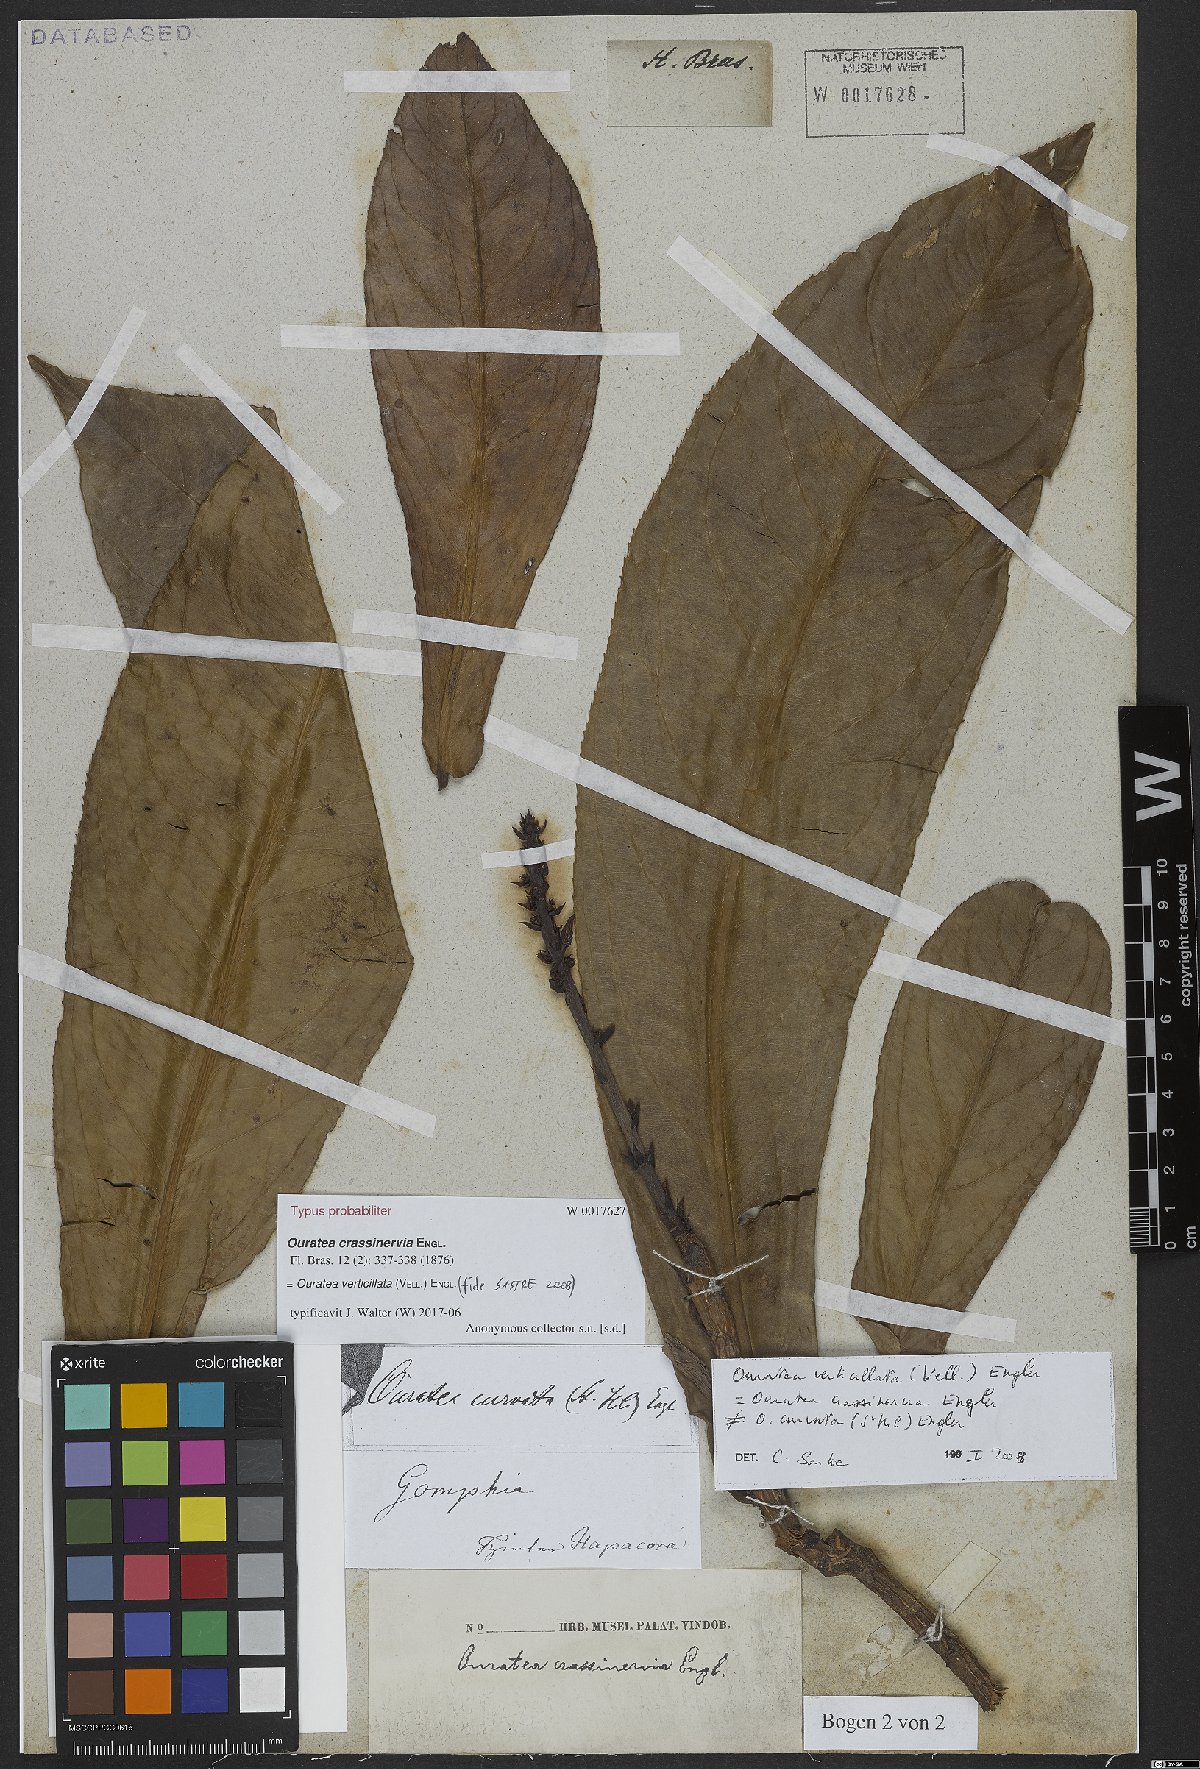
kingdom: Plantae
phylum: Tracheophyta
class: Magnoliopsida
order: Malpighiales
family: Ochnaceae
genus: Ouratea
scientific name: Ouratea crassinervia
